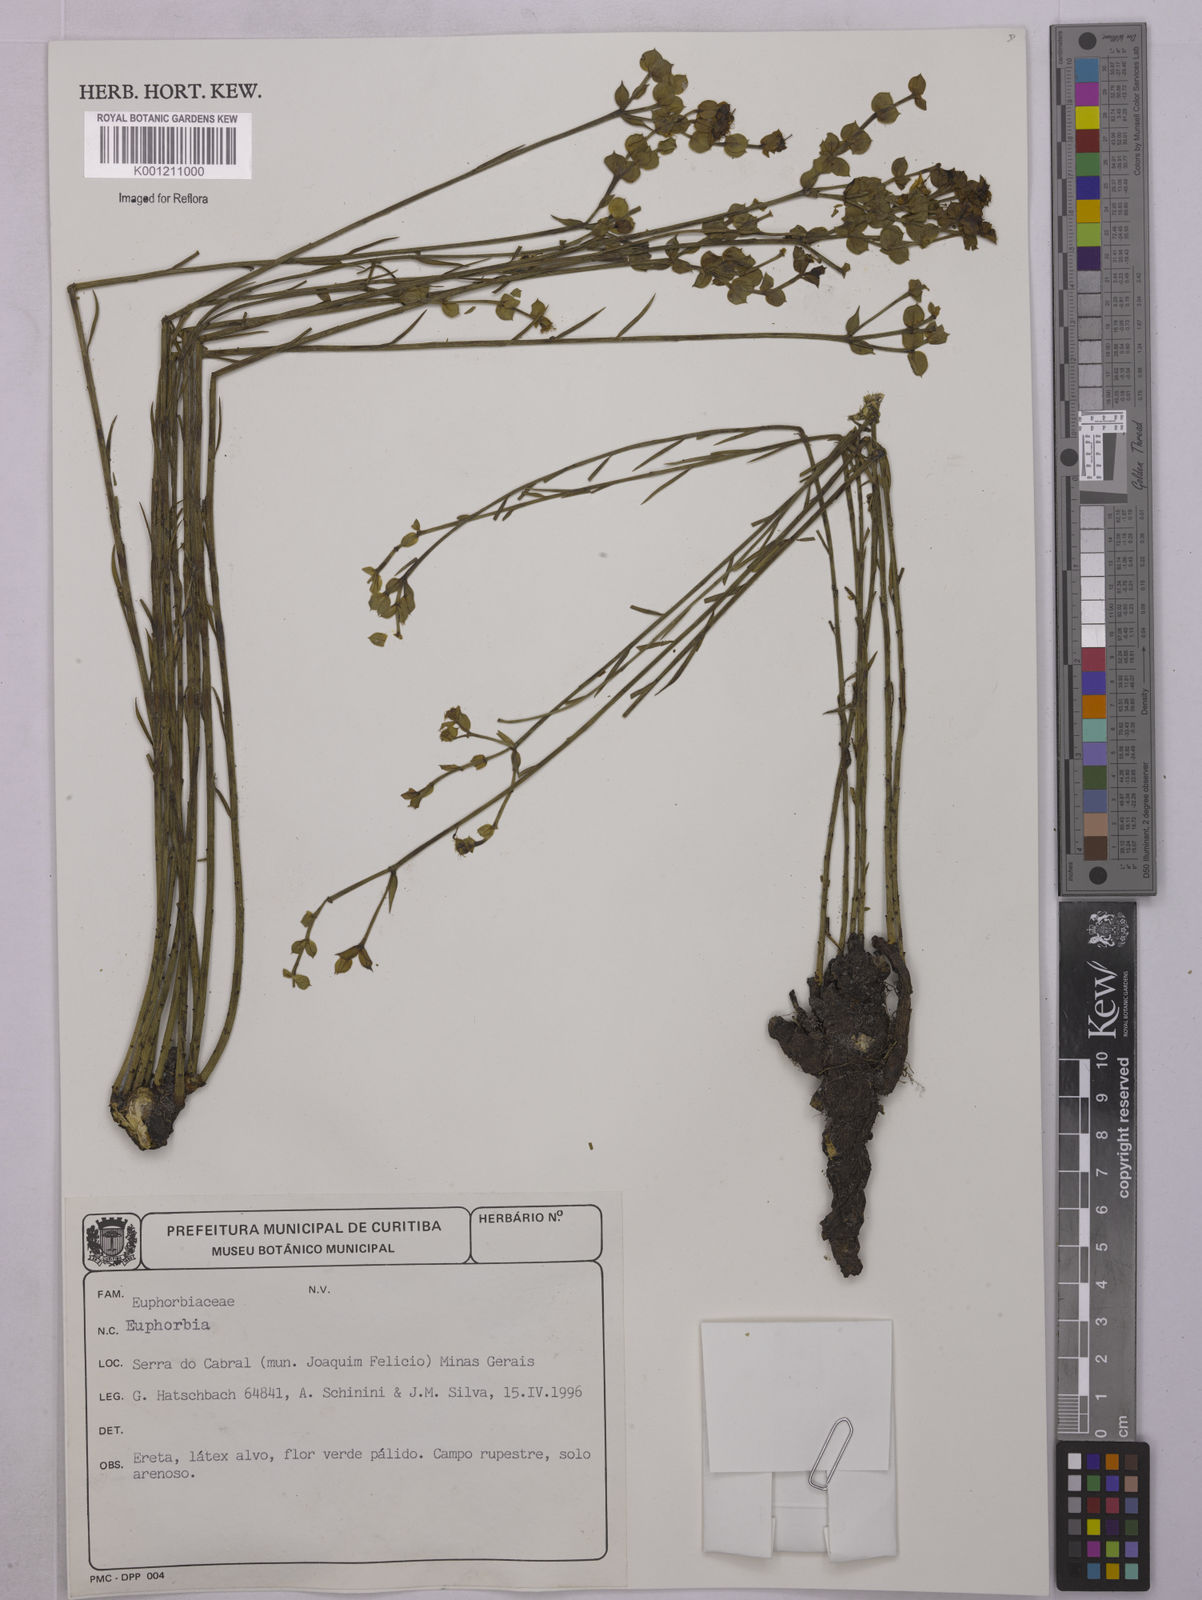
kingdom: Plantae
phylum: Tracheophyta
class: Magnoliopsida
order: Malpighiales
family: Euphorbiaceae
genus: Euphorbia
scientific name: Euphorbia
